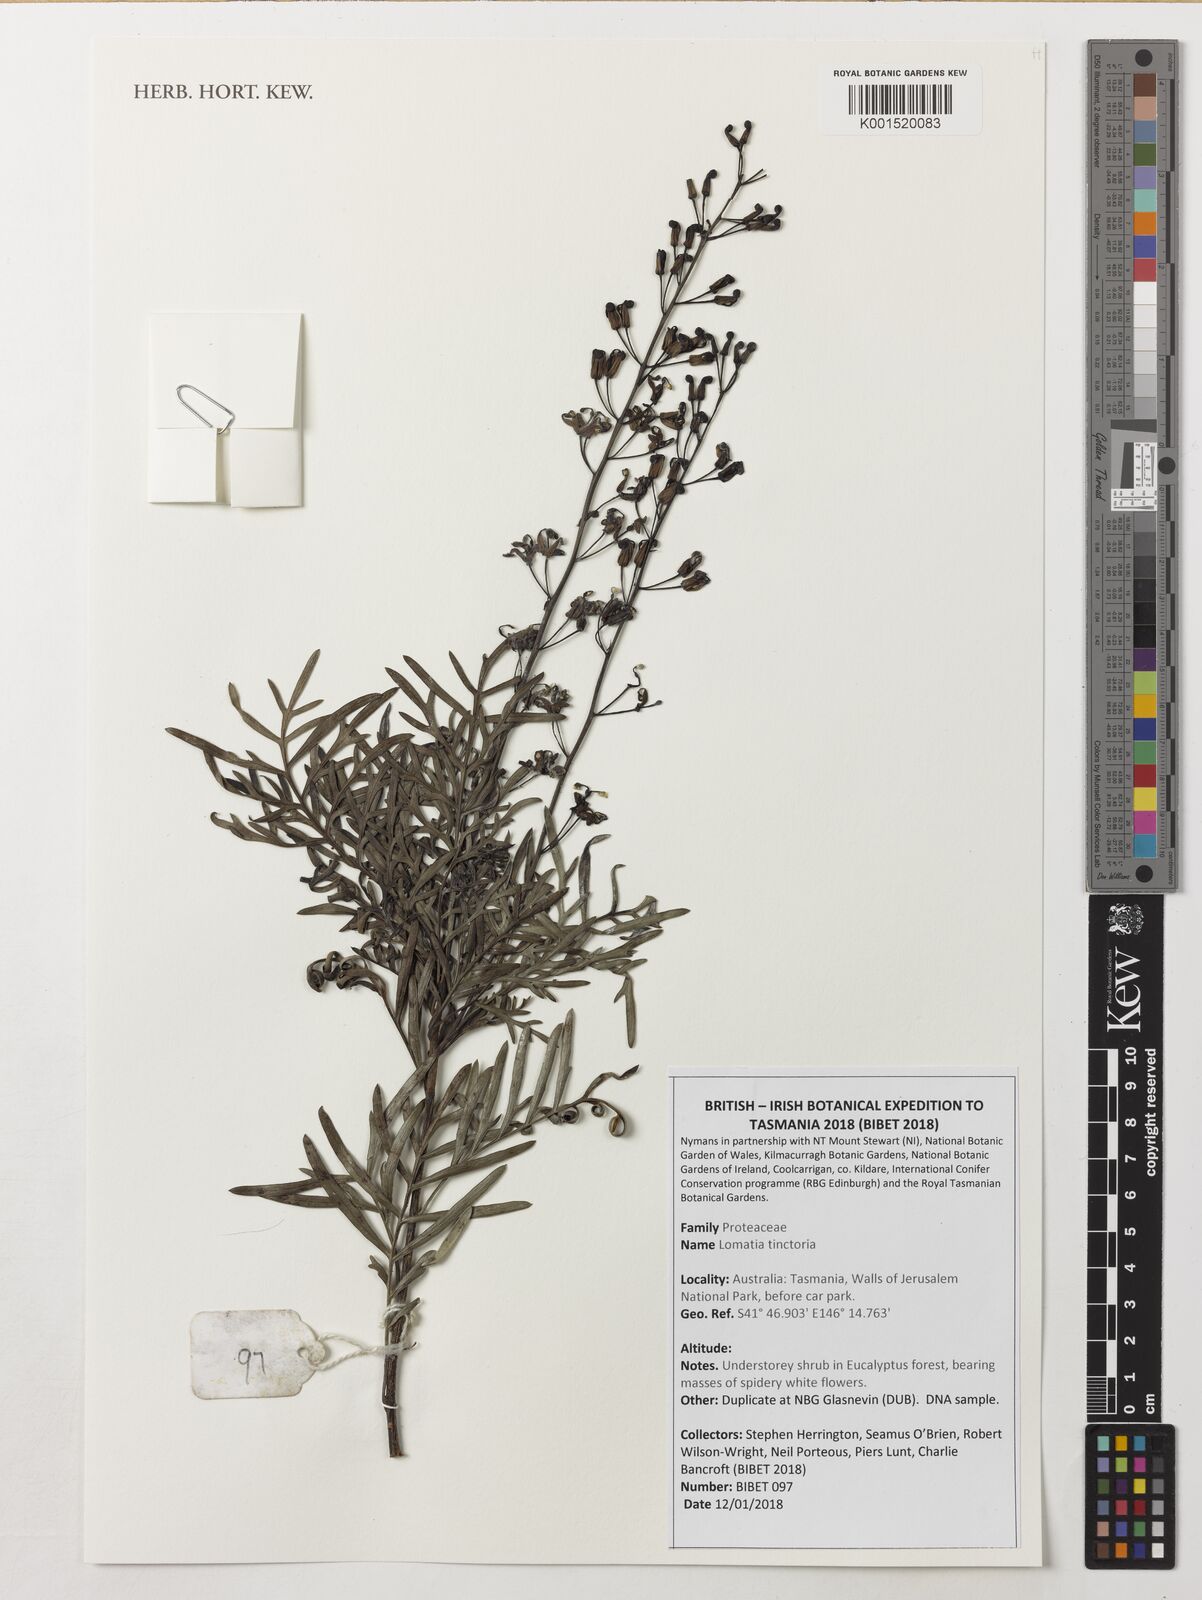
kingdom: Plantae
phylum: Tracheophyta
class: Magnoliopsida
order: Proteales
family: Proteaceae
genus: Lomatia
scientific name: Lomatia tinctoria
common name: Guitar plant
